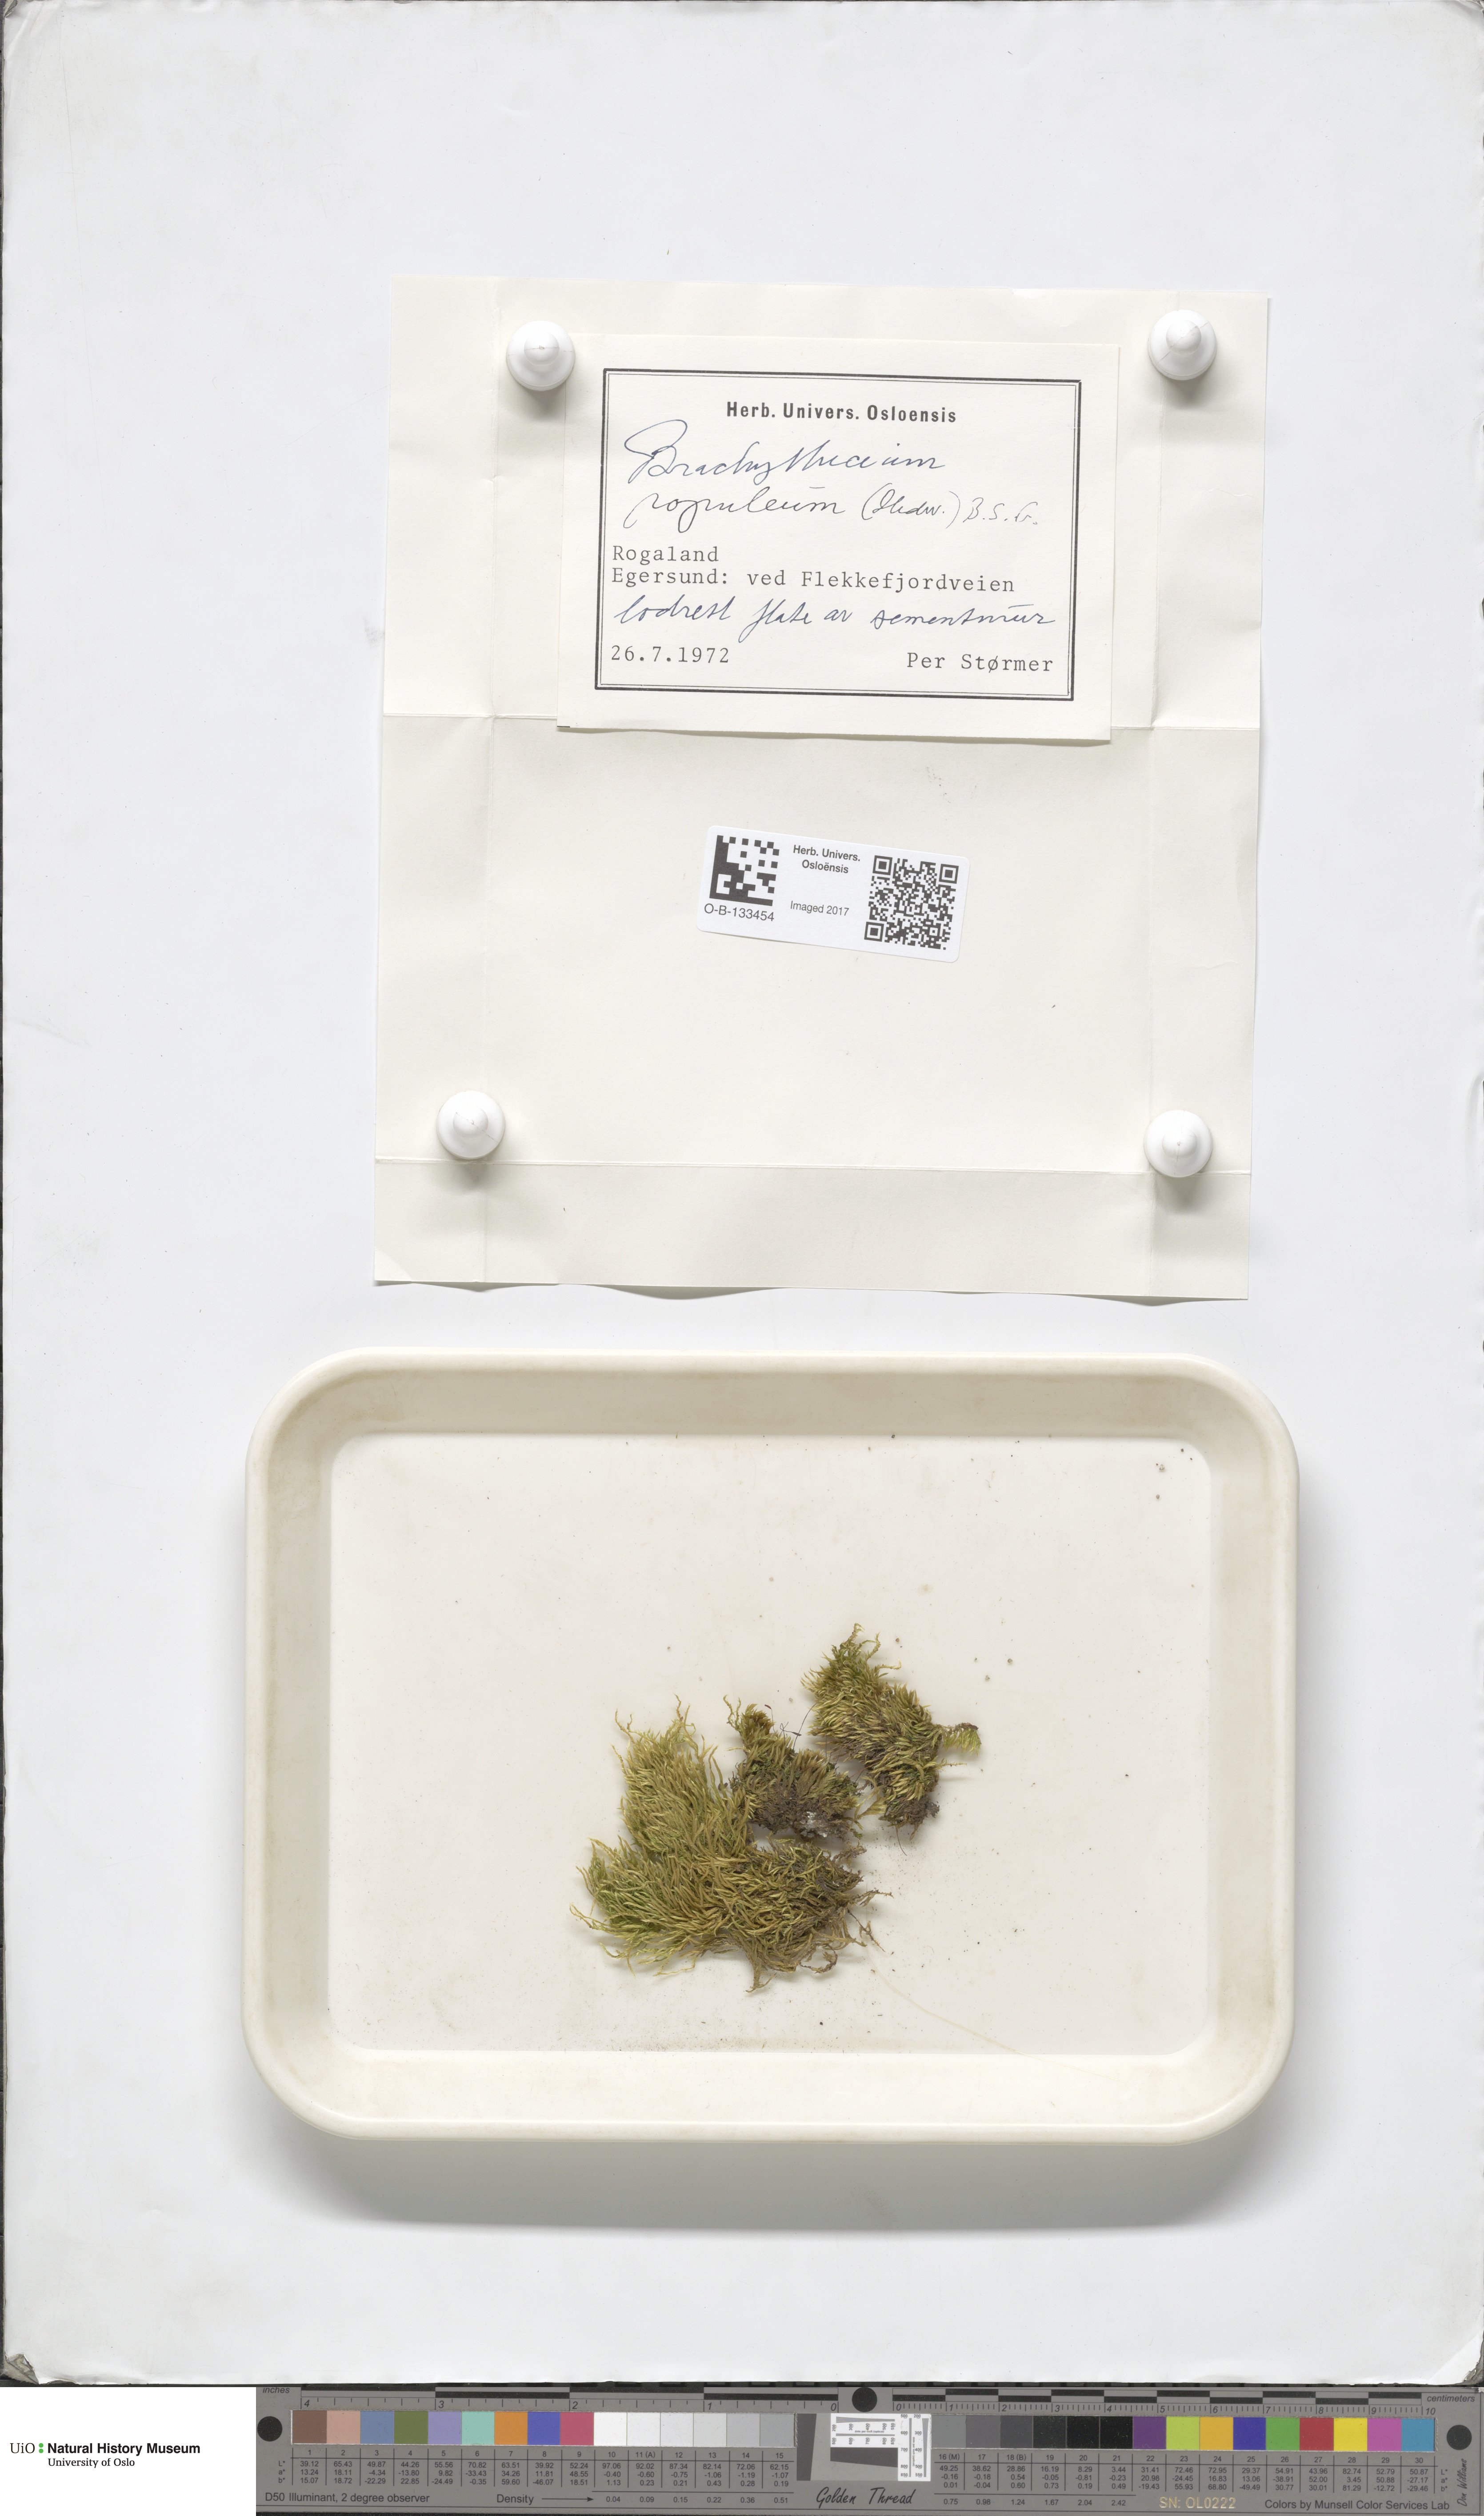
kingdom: Plantae
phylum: Bryophyta
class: Bryopsida
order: Hypnales
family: Brachytheciaceae
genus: Sciuro-hypnum
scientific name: Sciuro-hypnum plumosum
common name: Rusty feather-moss
